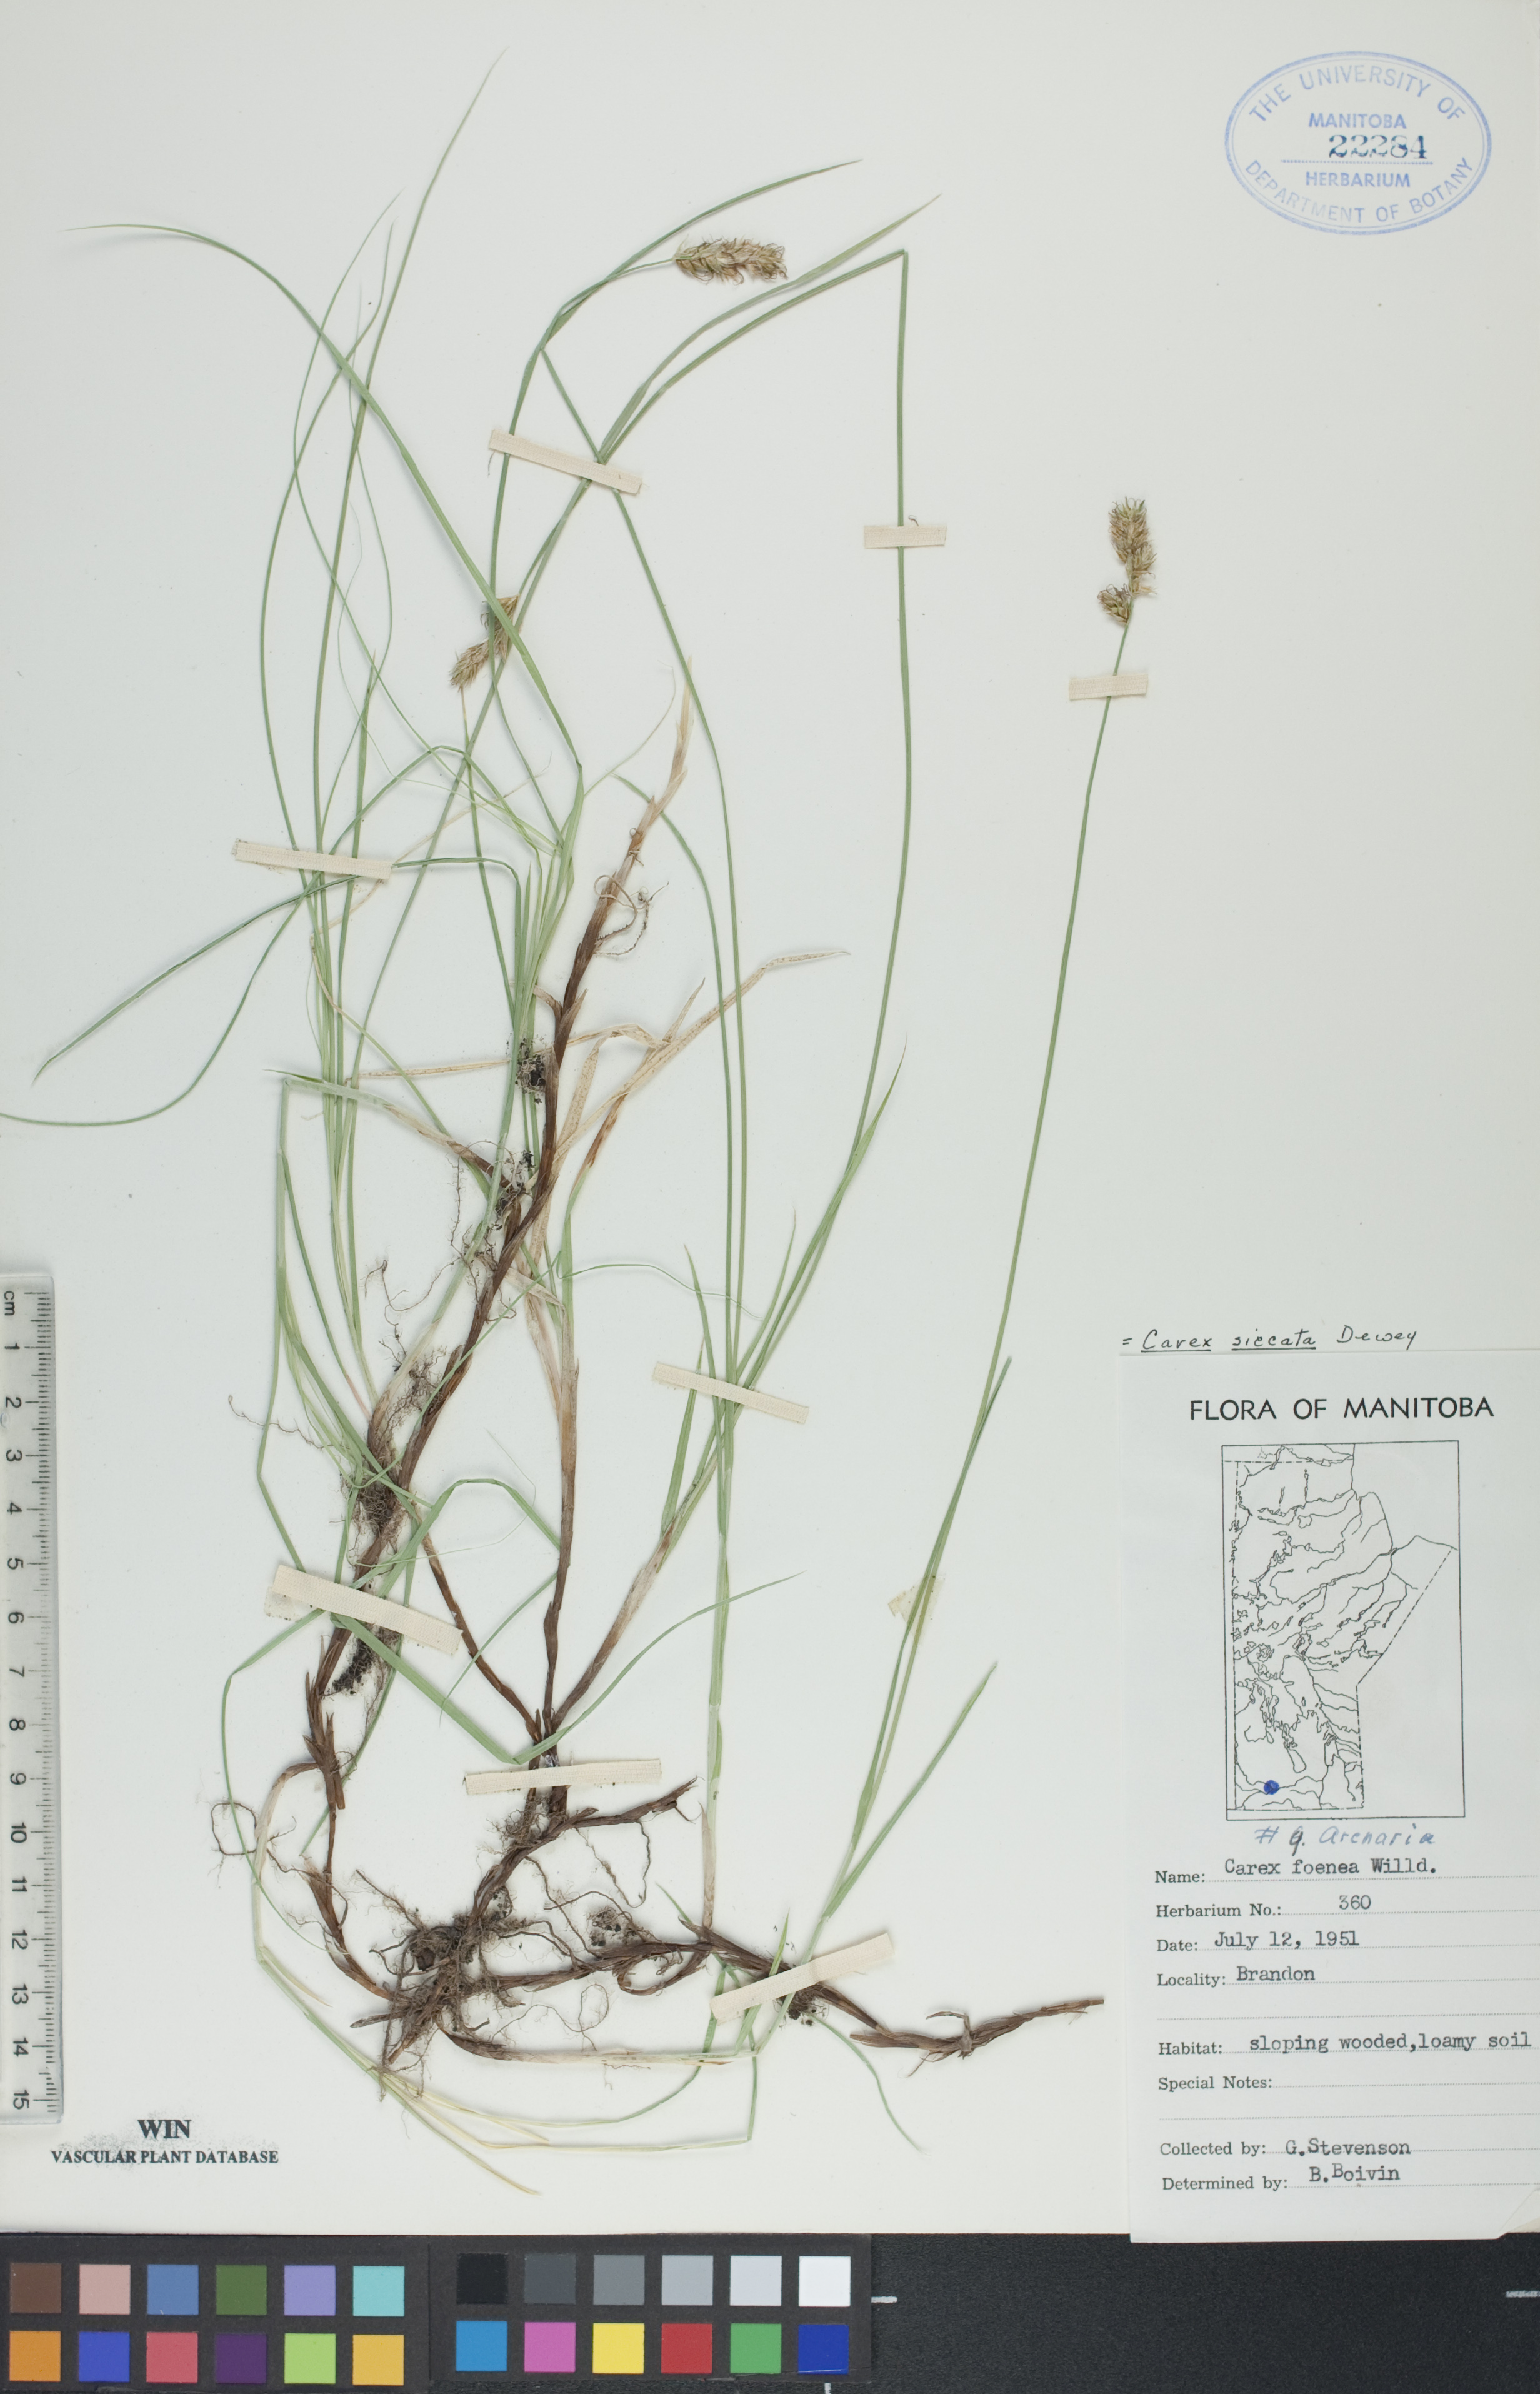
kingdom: Plantae
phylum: Tracheophyta
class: Liliopsida
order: Poales
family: Cyperaceae
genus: Carex
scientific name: Carex siccata
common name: Dry sedge
